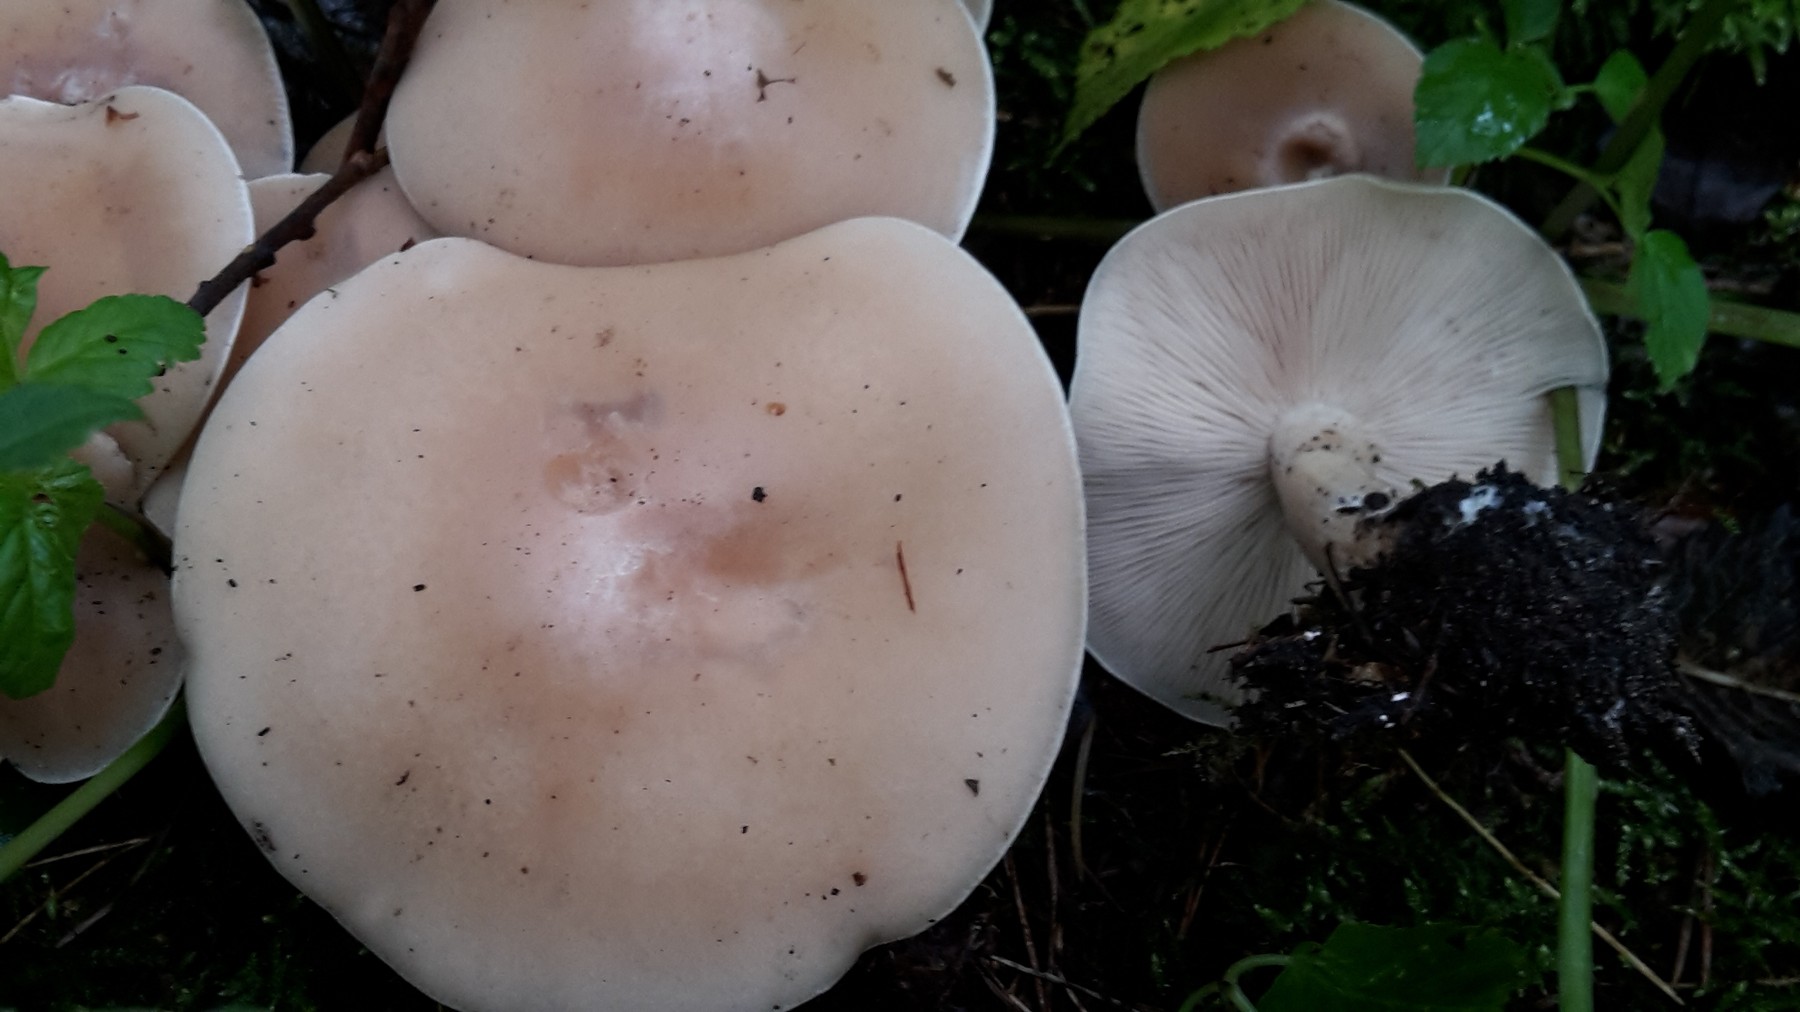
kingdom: Fungi
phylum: Basidiomycota
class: Agaricomycetes
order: Agaricales
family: Tricholomataceae
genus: Lepista
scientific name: Lepista irina
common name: violduftende hekseringshat
